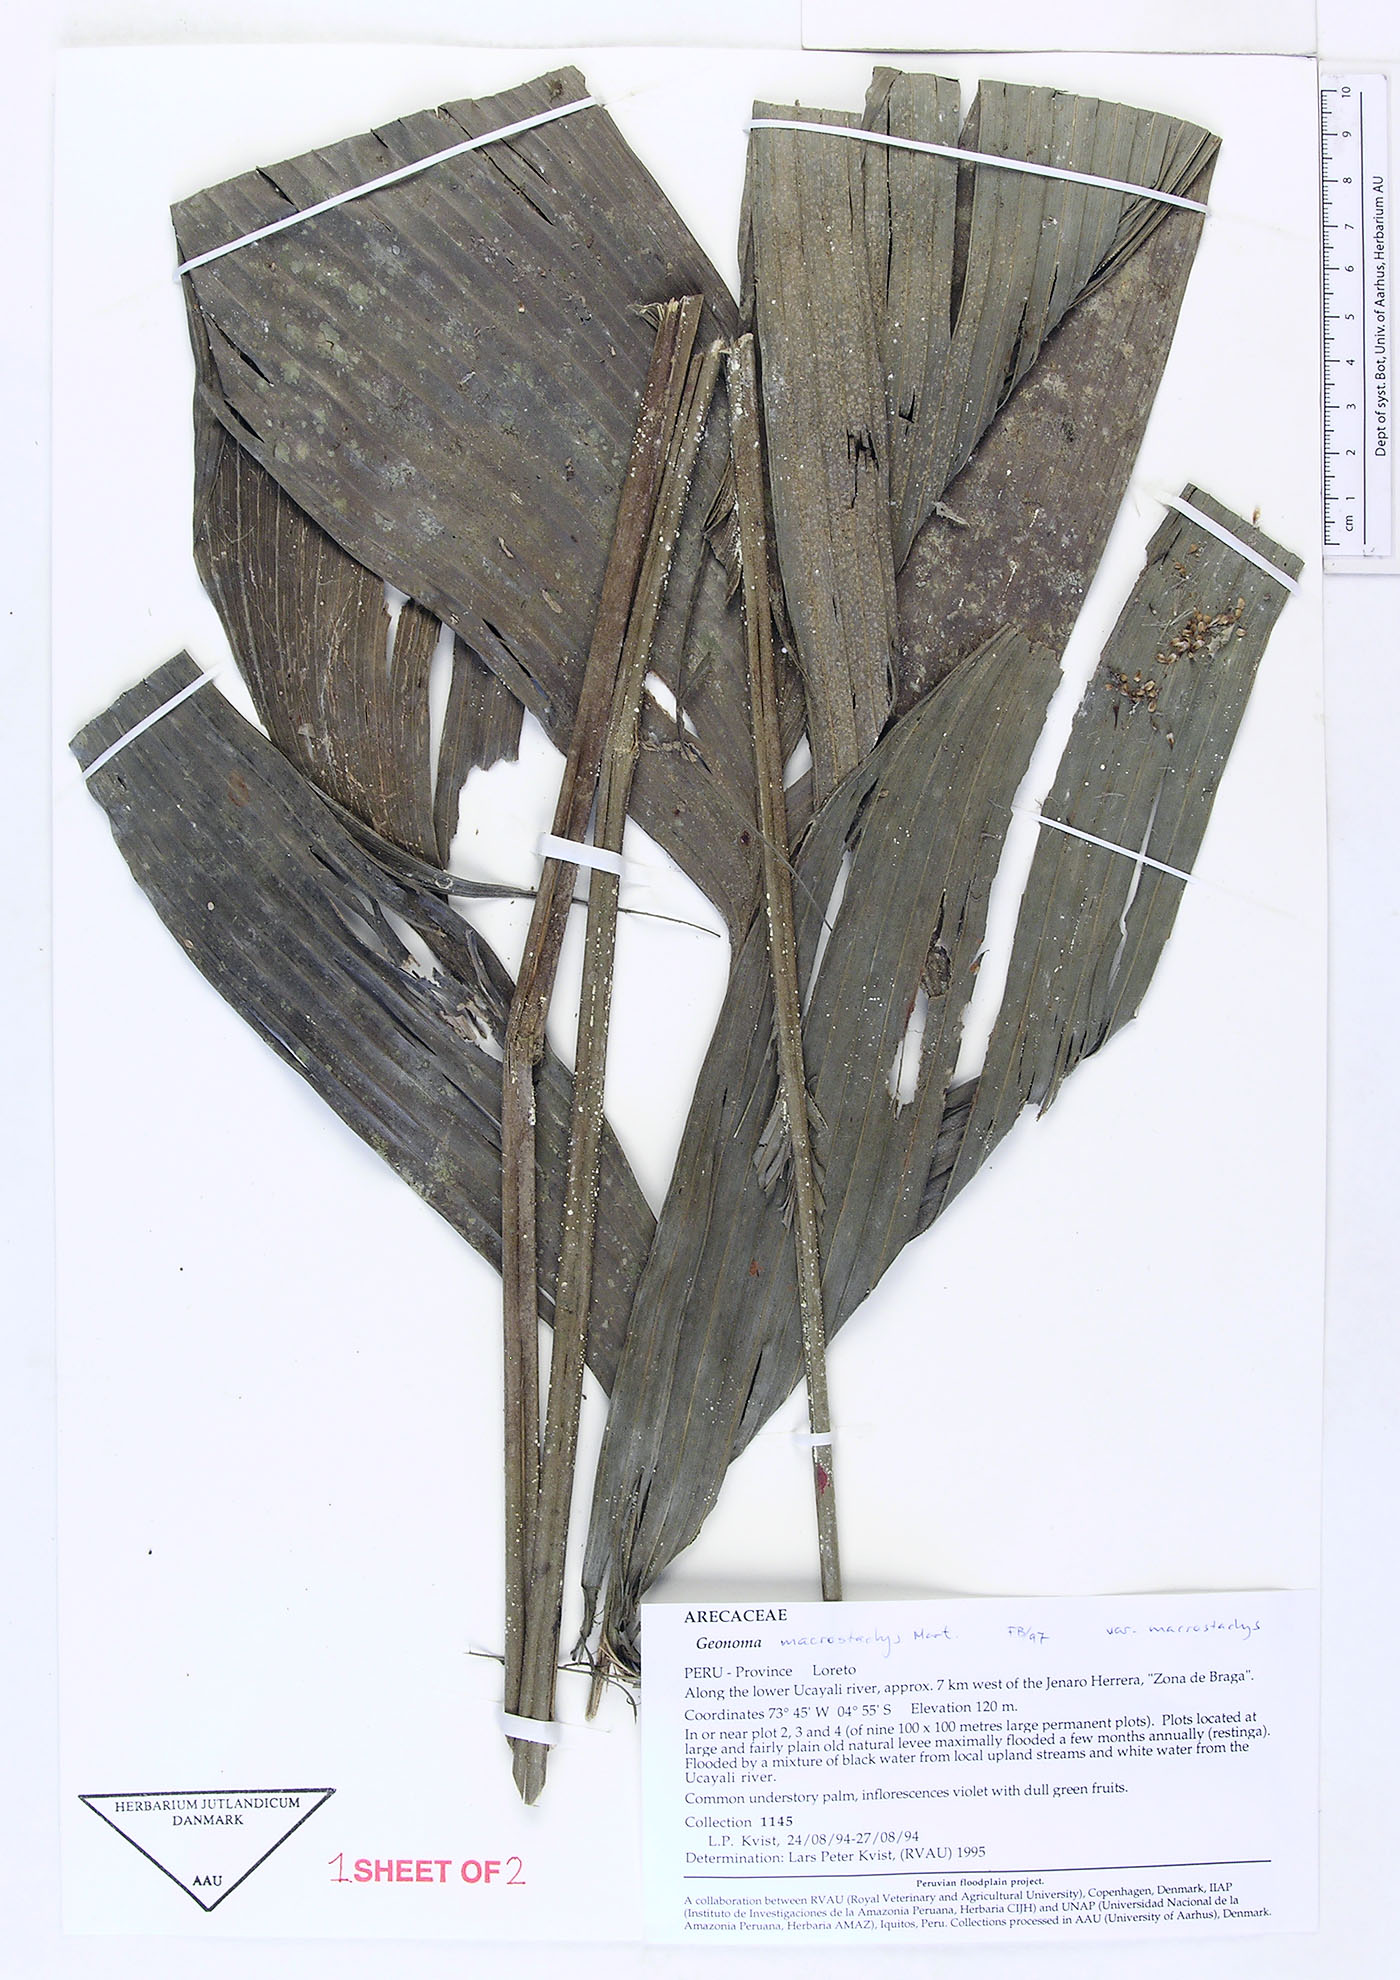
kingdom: Plantae
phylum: Tracheophyta
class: Liliopsida
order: Arecales
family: Arecaceae
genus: Geonoma
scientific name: Geonoma macrostachys
